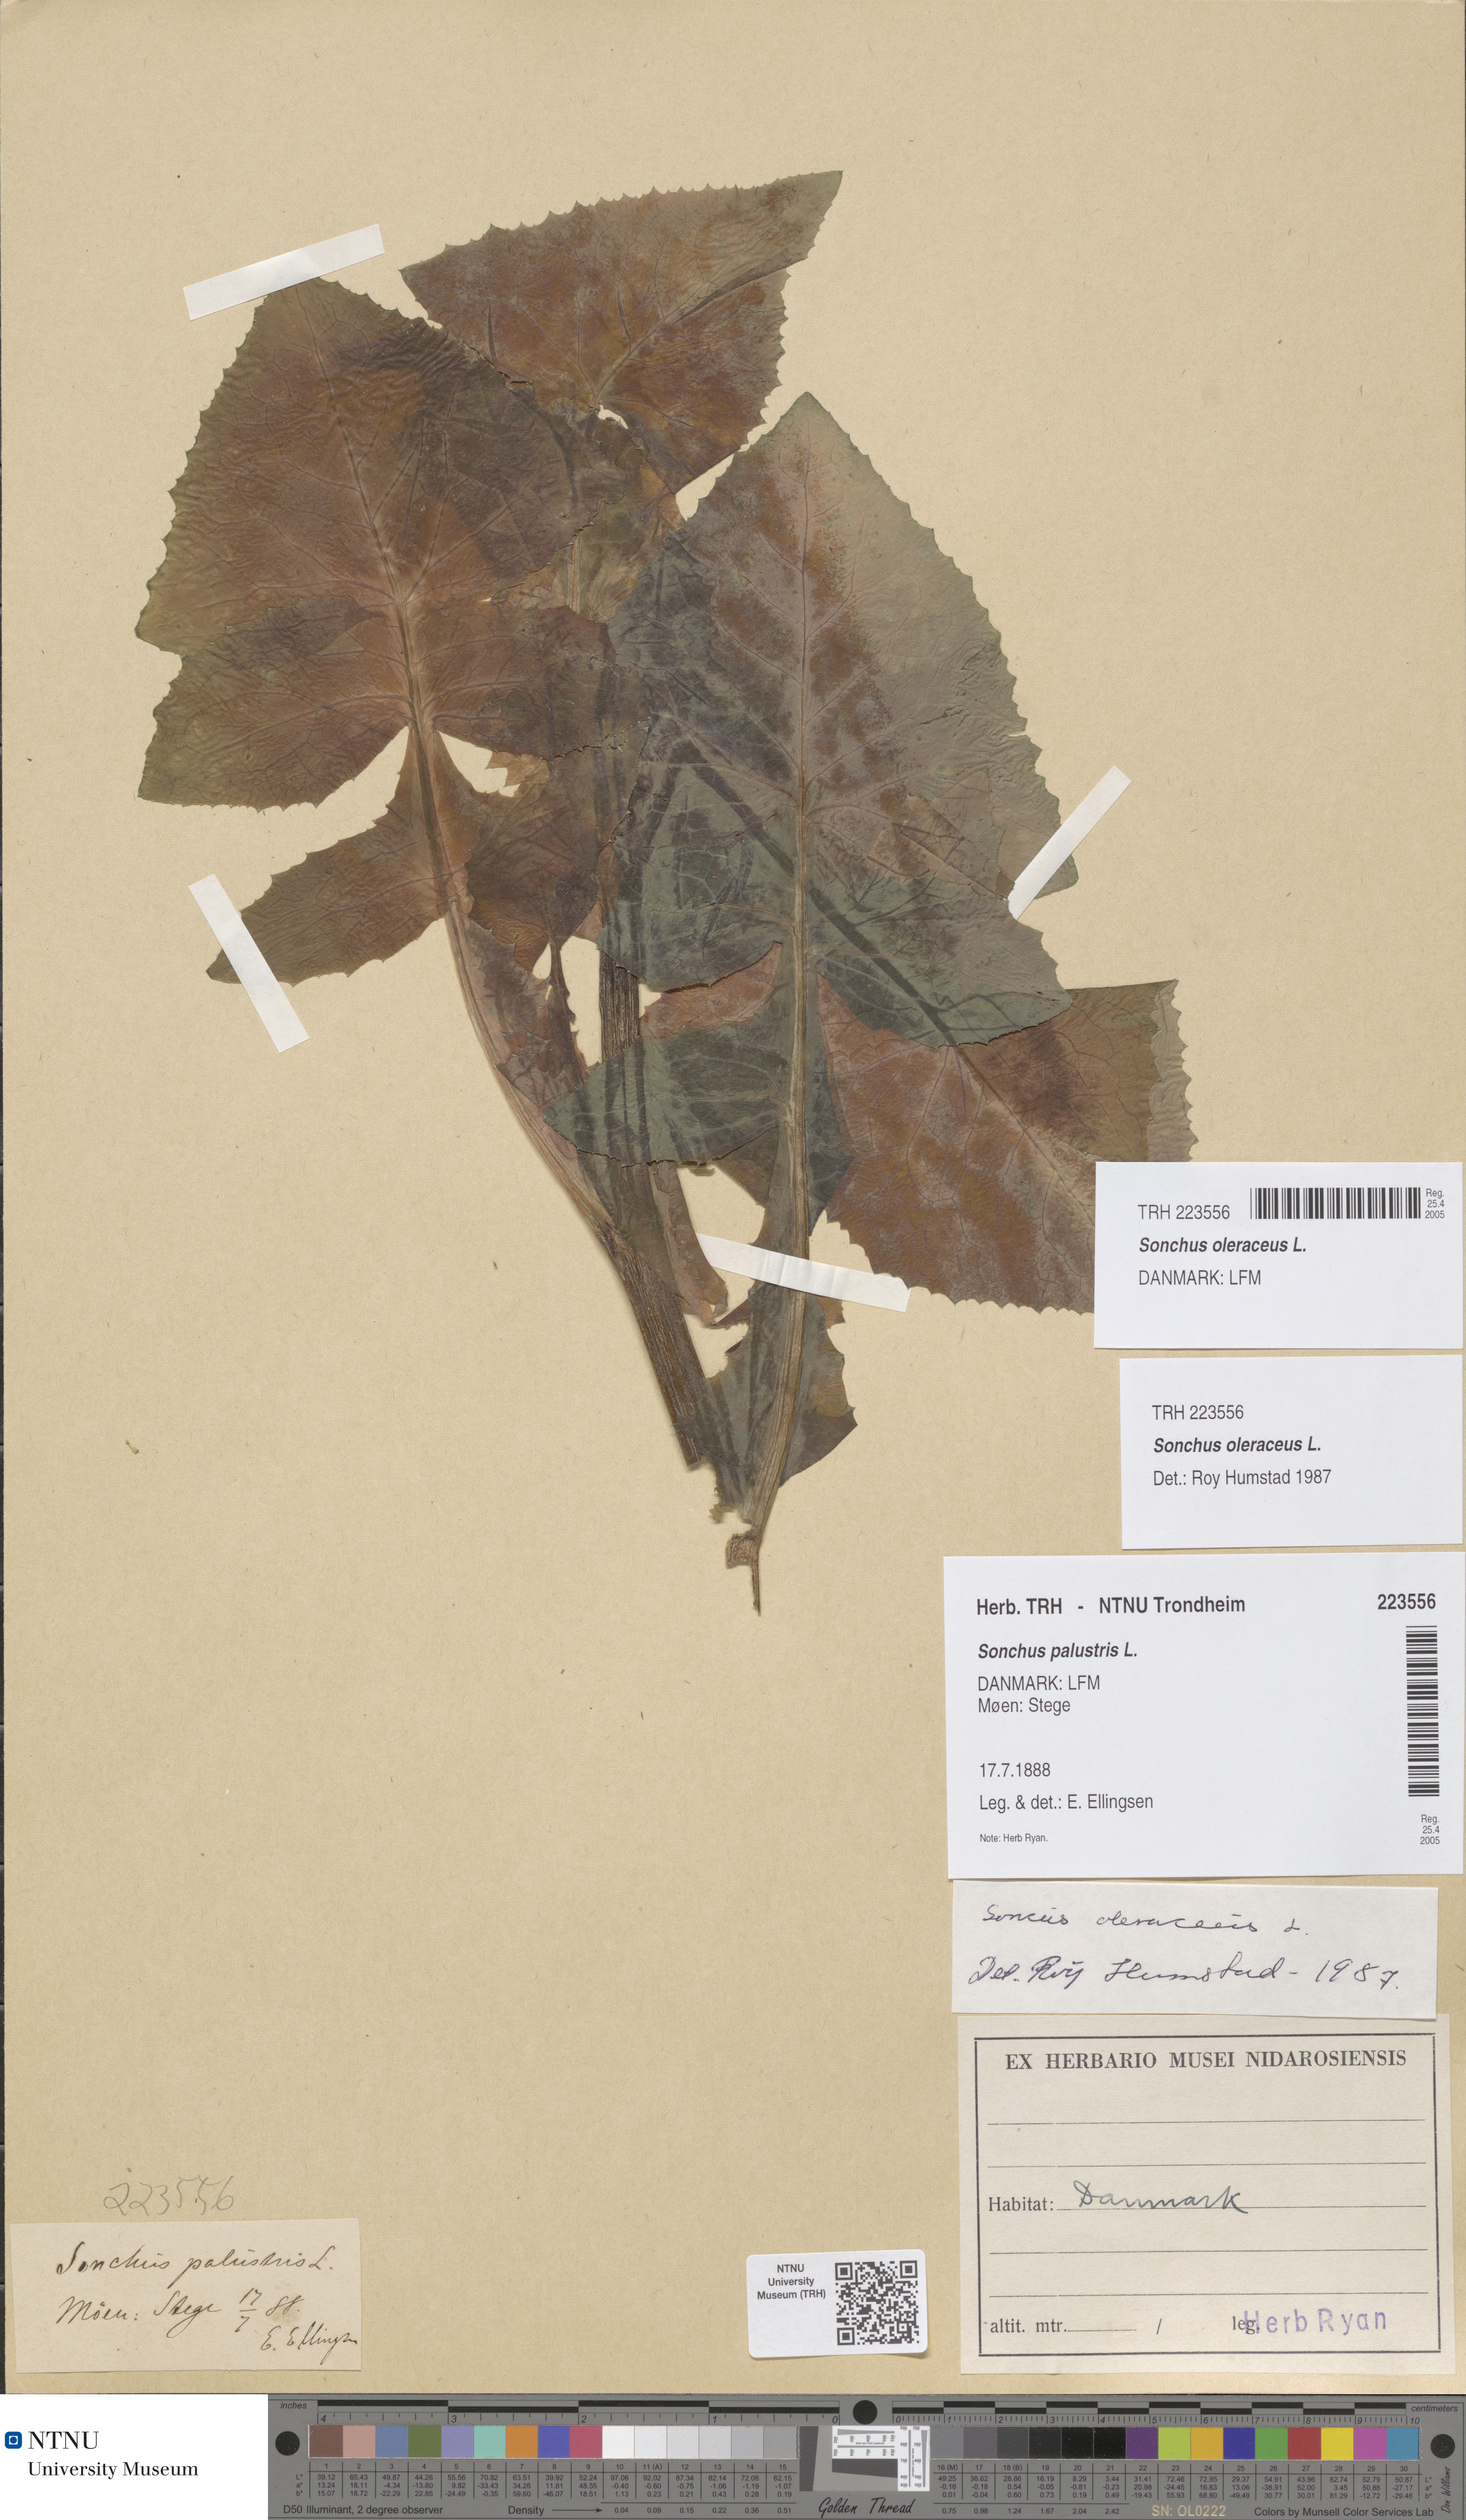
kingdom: Plantae
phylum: Tracheophyta
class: Magnoliopsida
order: Asterales
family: Asteraceae
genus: Sonchus
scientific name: Sonchus oleraceus
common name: Common sowthistle
